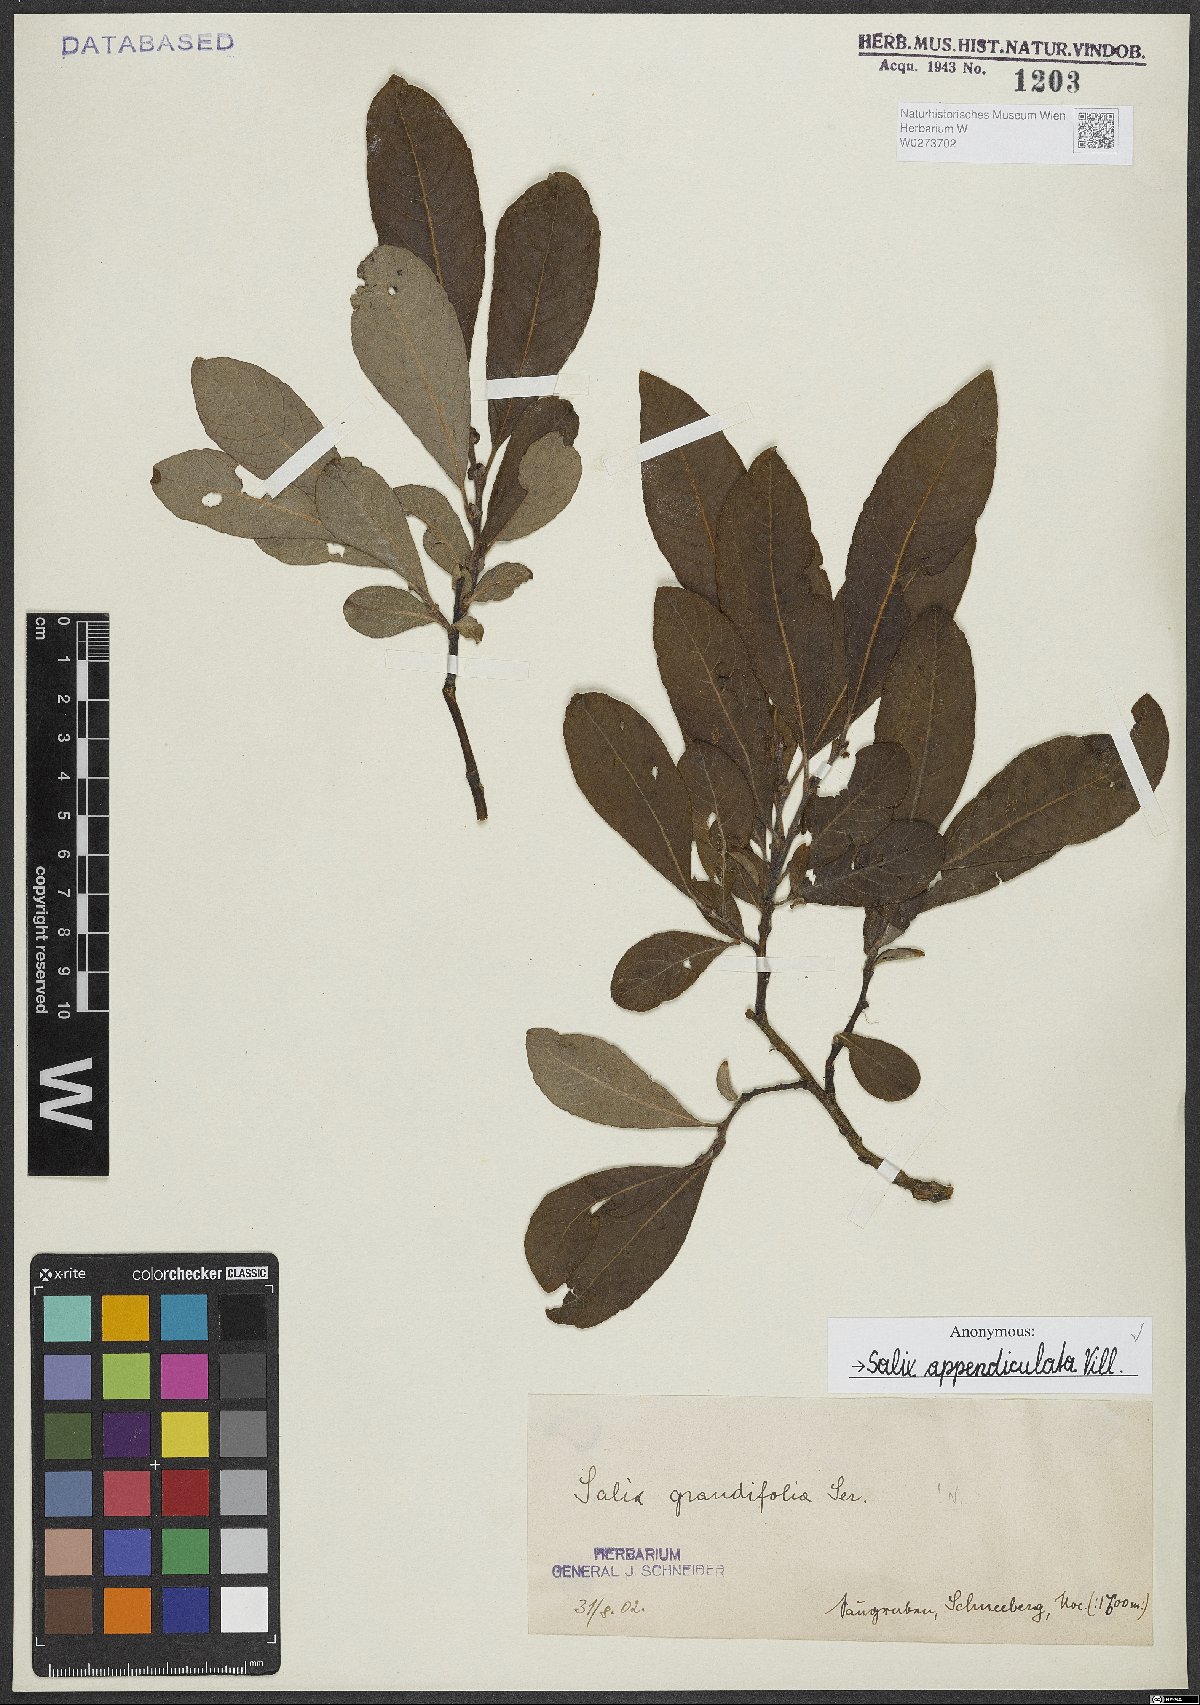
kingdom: Plantae
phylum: Tracheophyta
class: Magnoliopsida
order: Malpighiales
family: Salicaceae
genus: Salix
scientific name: Salix appendiculata
